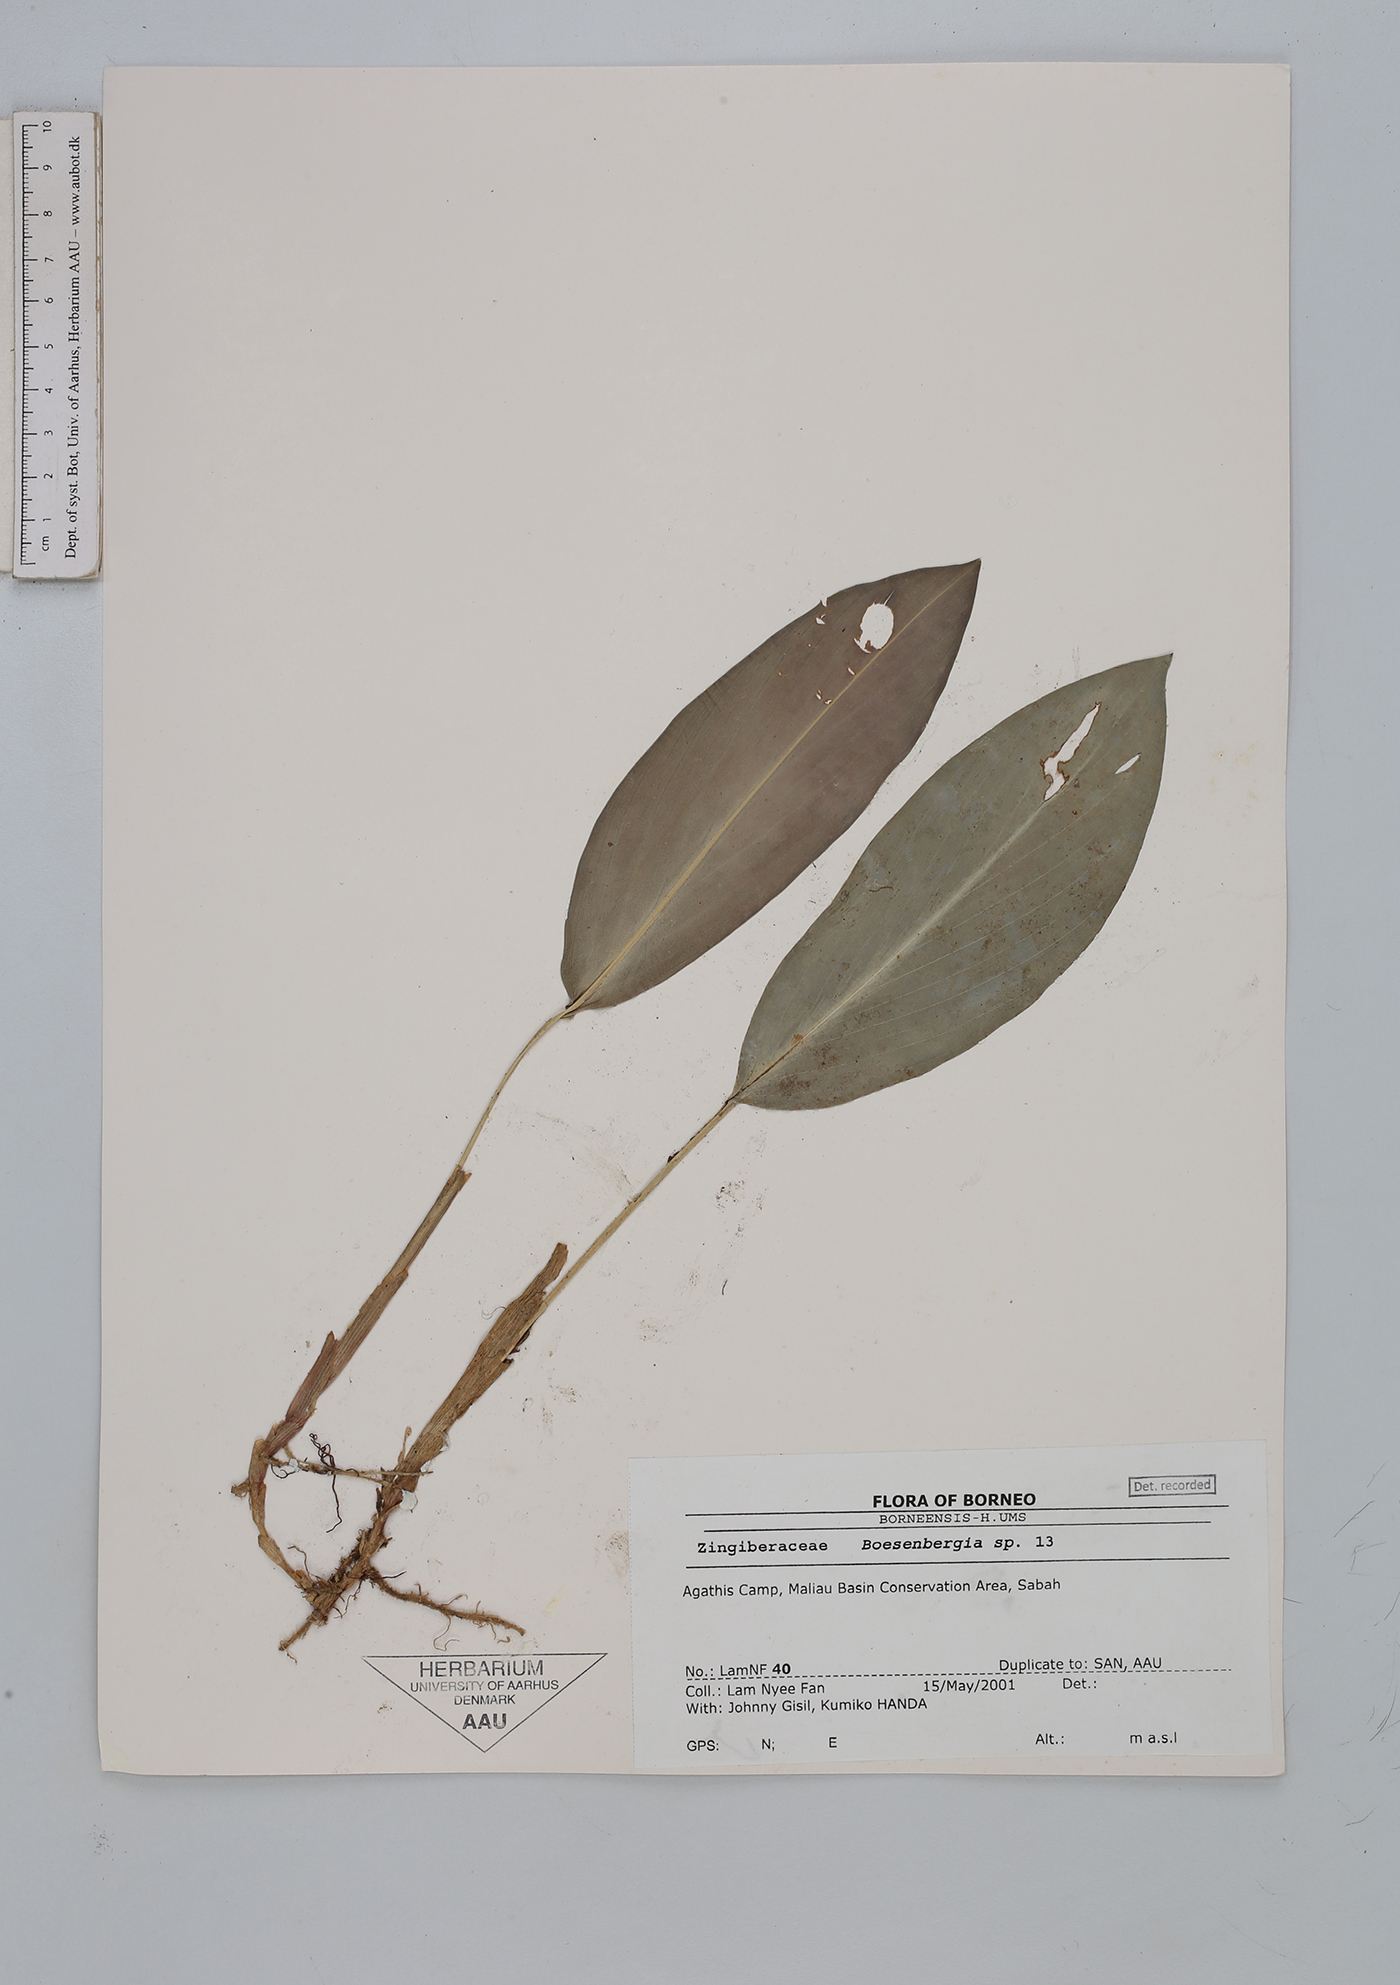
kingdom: Plantae
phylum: Tracheophyta
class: Liliopsida
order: Zingiberales
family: Zingiberaceae
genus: Boesenbergia
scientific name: Boesenbergia
